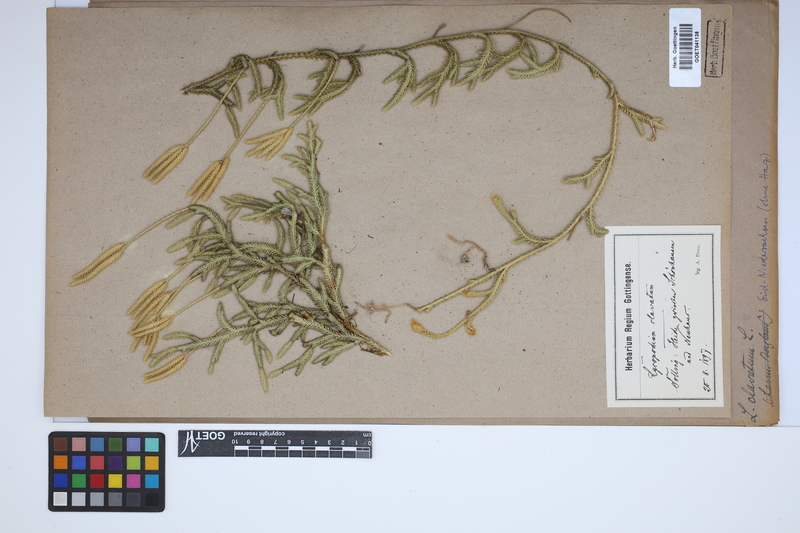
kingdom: Plantae
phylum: Tracheophyta
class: Lycopodiopsida
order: Lycopodiales
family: Lycopodiaceae
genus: Lycopodium
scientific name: Lycopodium clavatum
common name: Stag's-horn clubmoss
